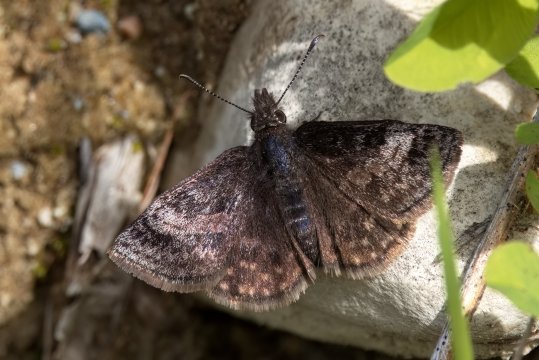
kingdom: Animalia
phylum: Arthropoda
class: Insecta
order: Lepidoptera
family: Hesperiidae
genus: Erynnis
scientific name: Erynnis icelus
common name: Dreamy Duskywing
